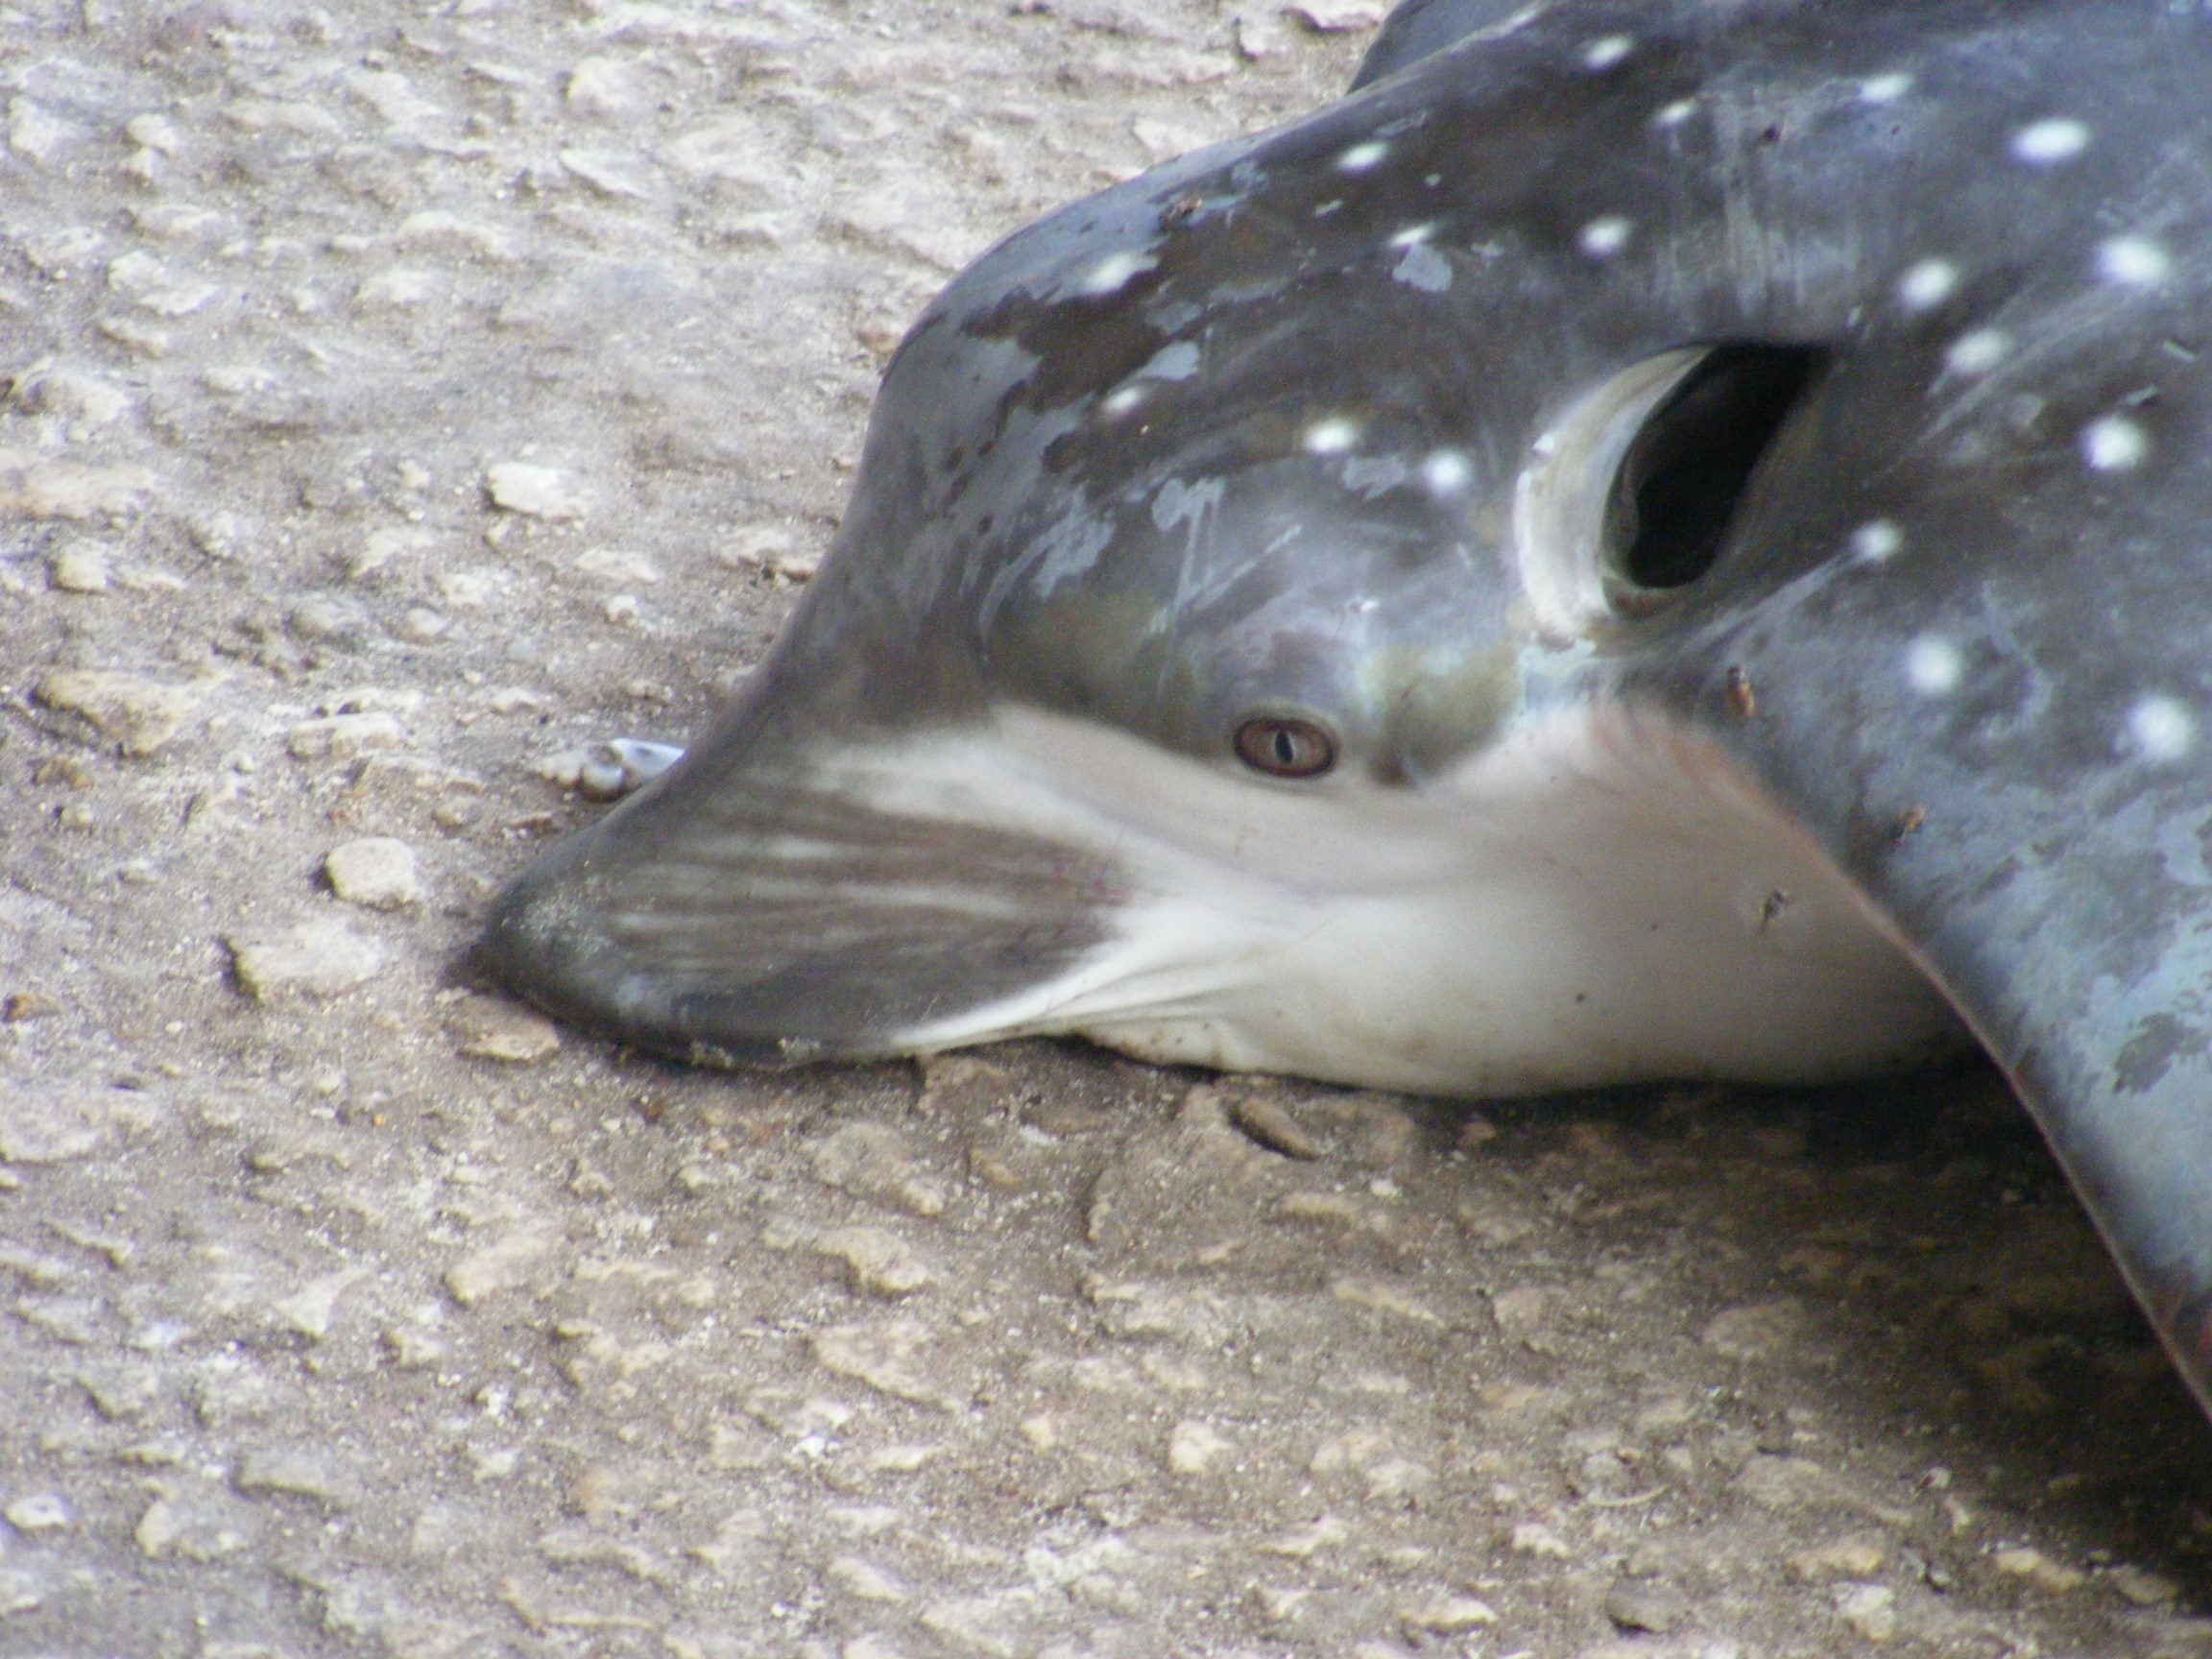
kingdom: Animalia
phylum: Chordata
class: Elasmobranchii
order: Myliobatiformes
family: Myliobatidae
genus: Aetobatus
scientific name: Aetobatus narinari
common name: Spotted eagle ray
